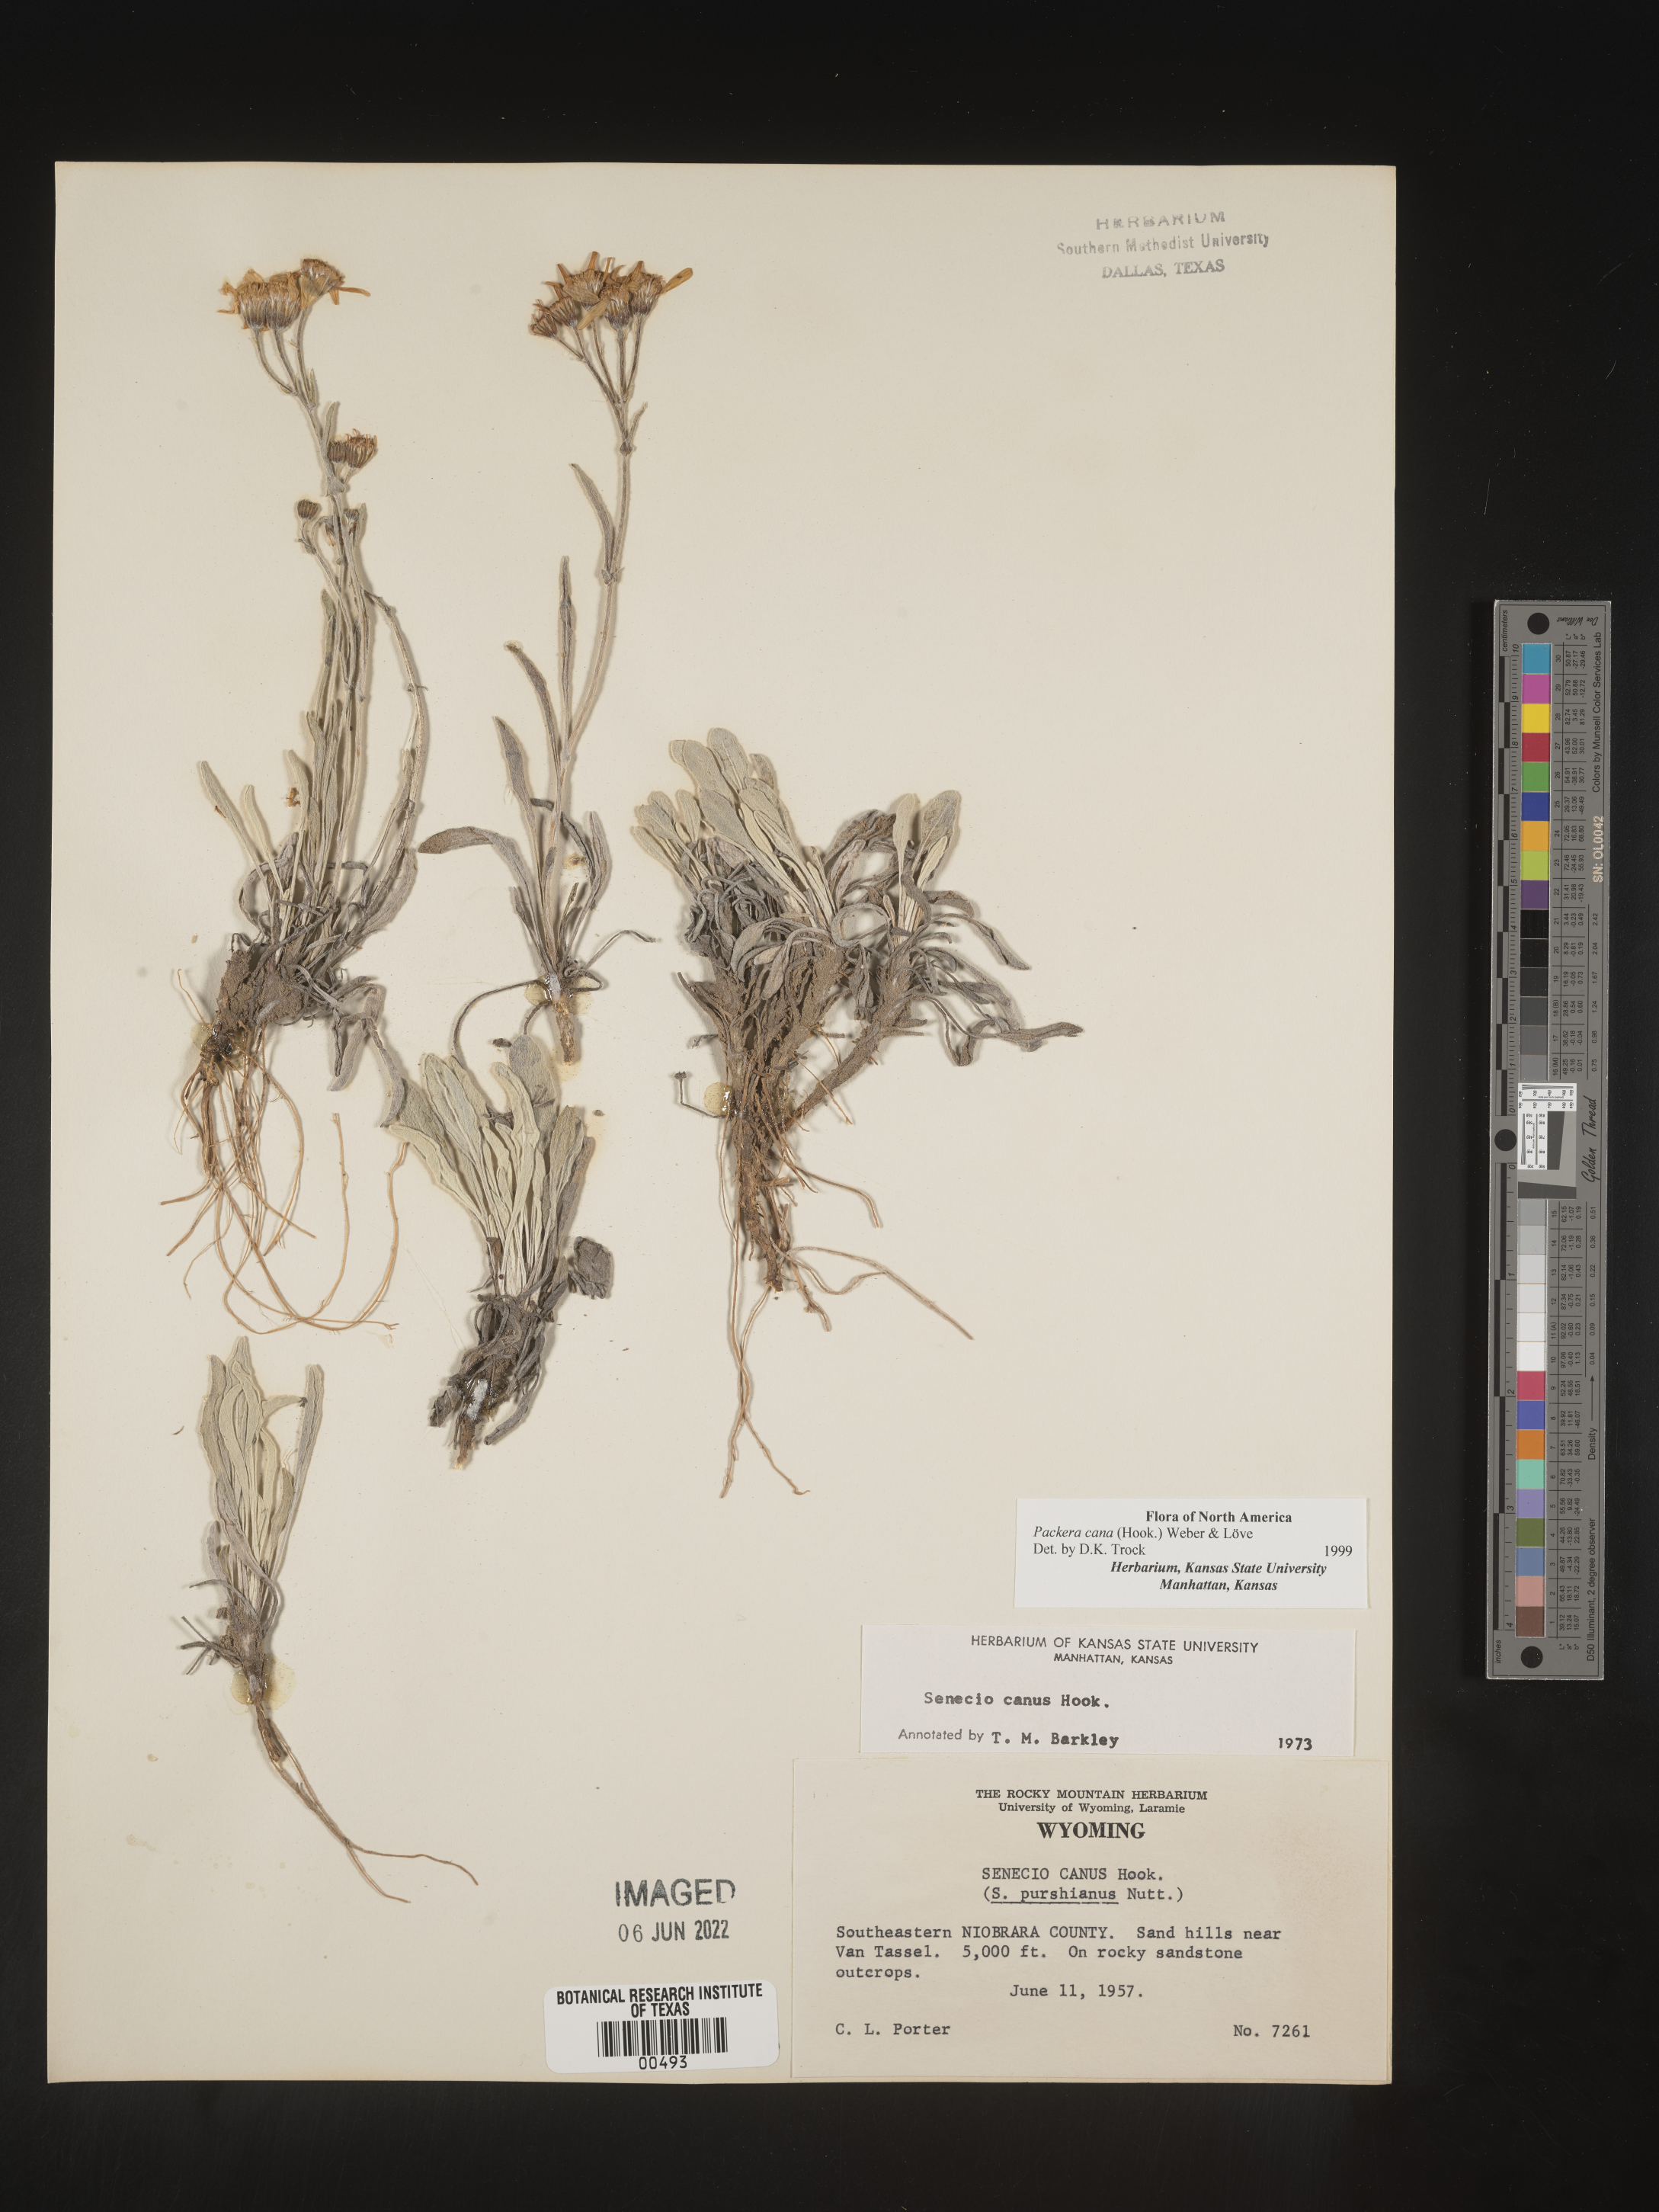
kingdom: Plantae
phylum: Tracheophyta
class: Magnoliopsida
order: Asterales
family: Asteraceae
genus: Packera
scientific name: Packera cana
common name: Woolly groundsel
